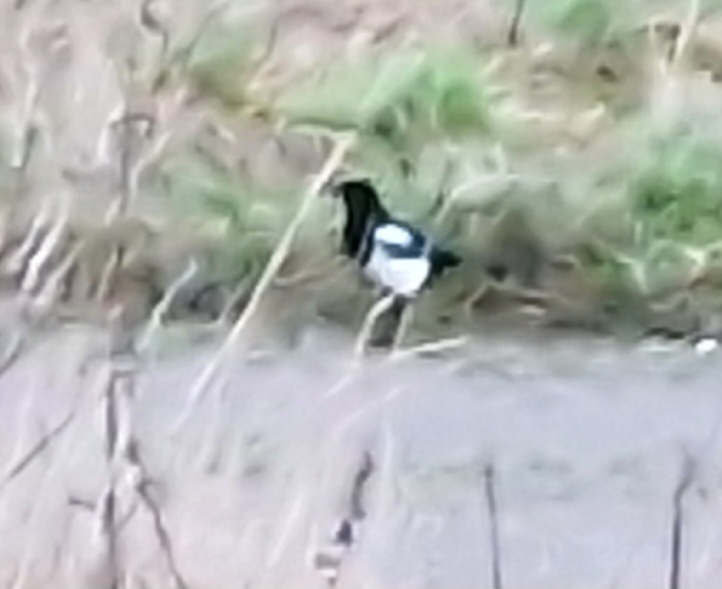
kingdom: Animalia
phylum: Chordata
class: Aves
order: Passeriformes
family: Corvidae
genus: Pica
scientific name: Pica pica
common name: Husskade
